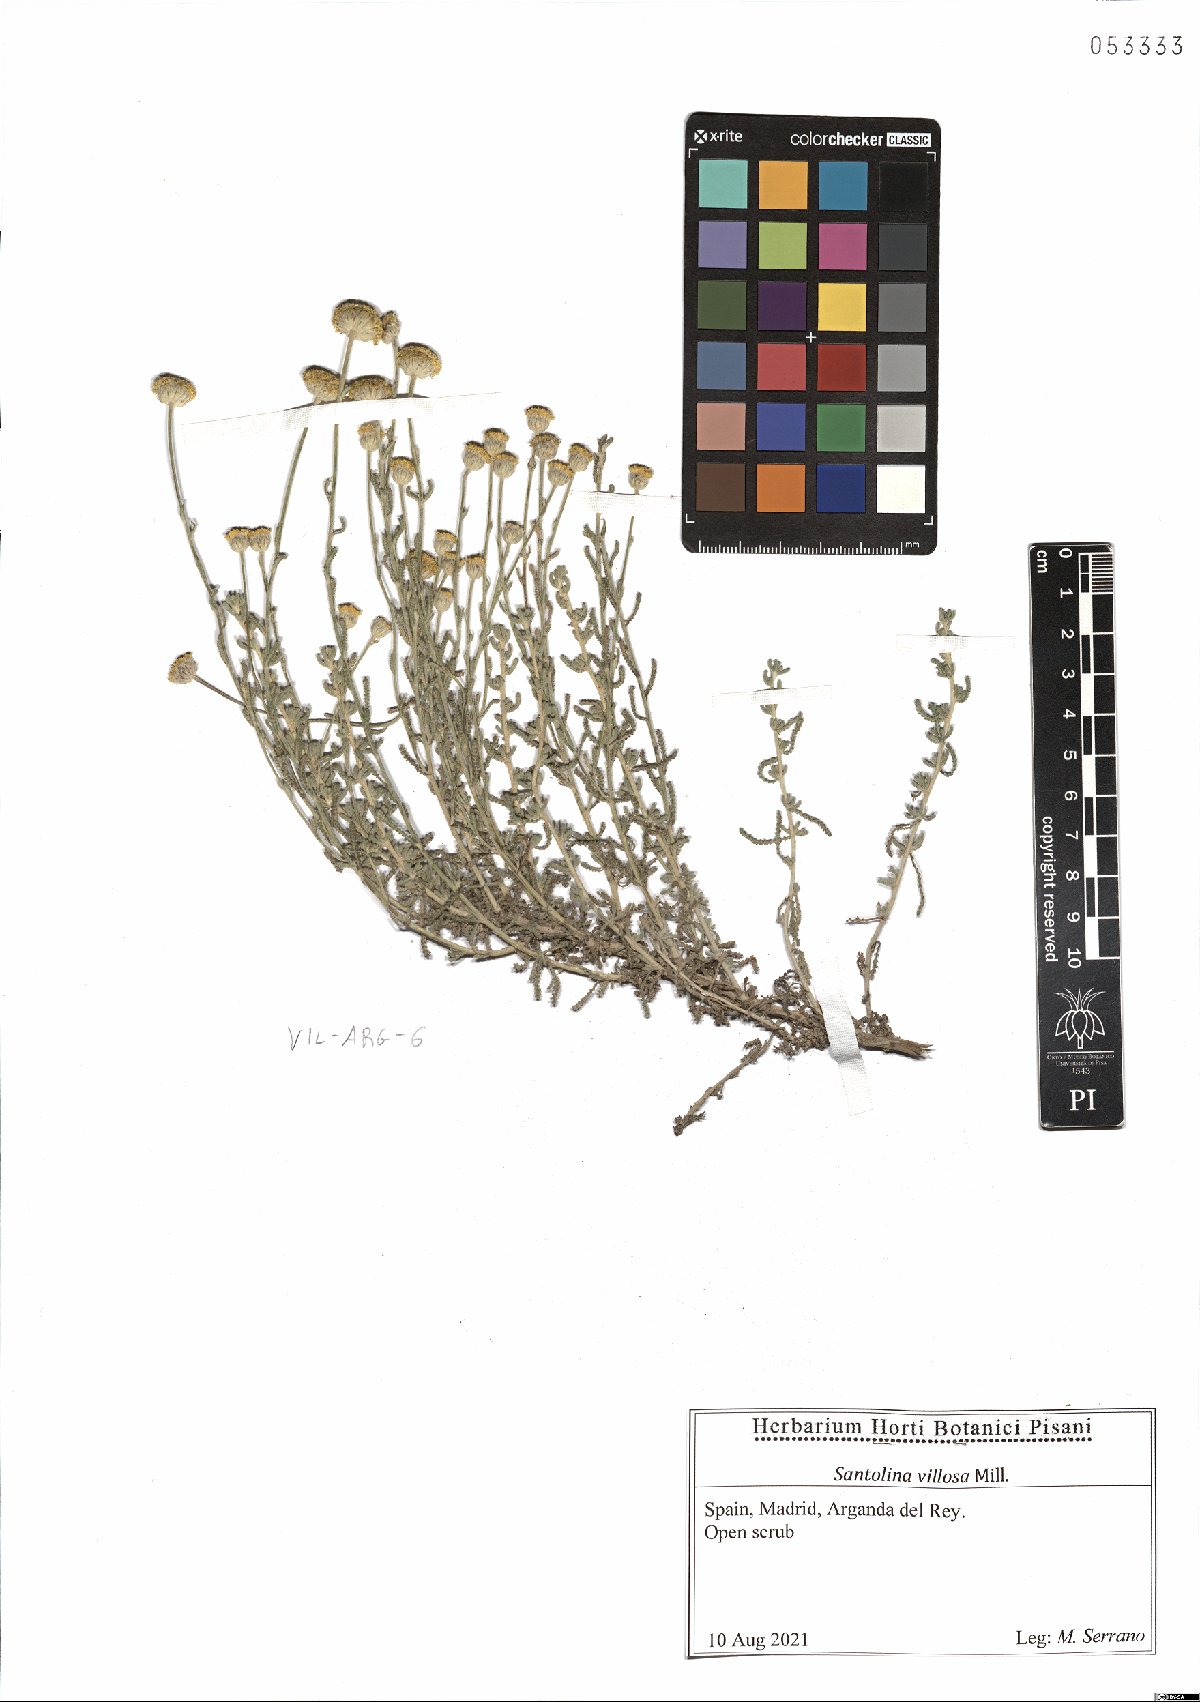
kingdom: Plantae
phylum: Tracheophyta
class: Magnoliopsida
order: Asterales
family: Asteraceae
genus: Santolina
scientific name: Santolina chamaecyparissus
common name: Lavender-cotton
